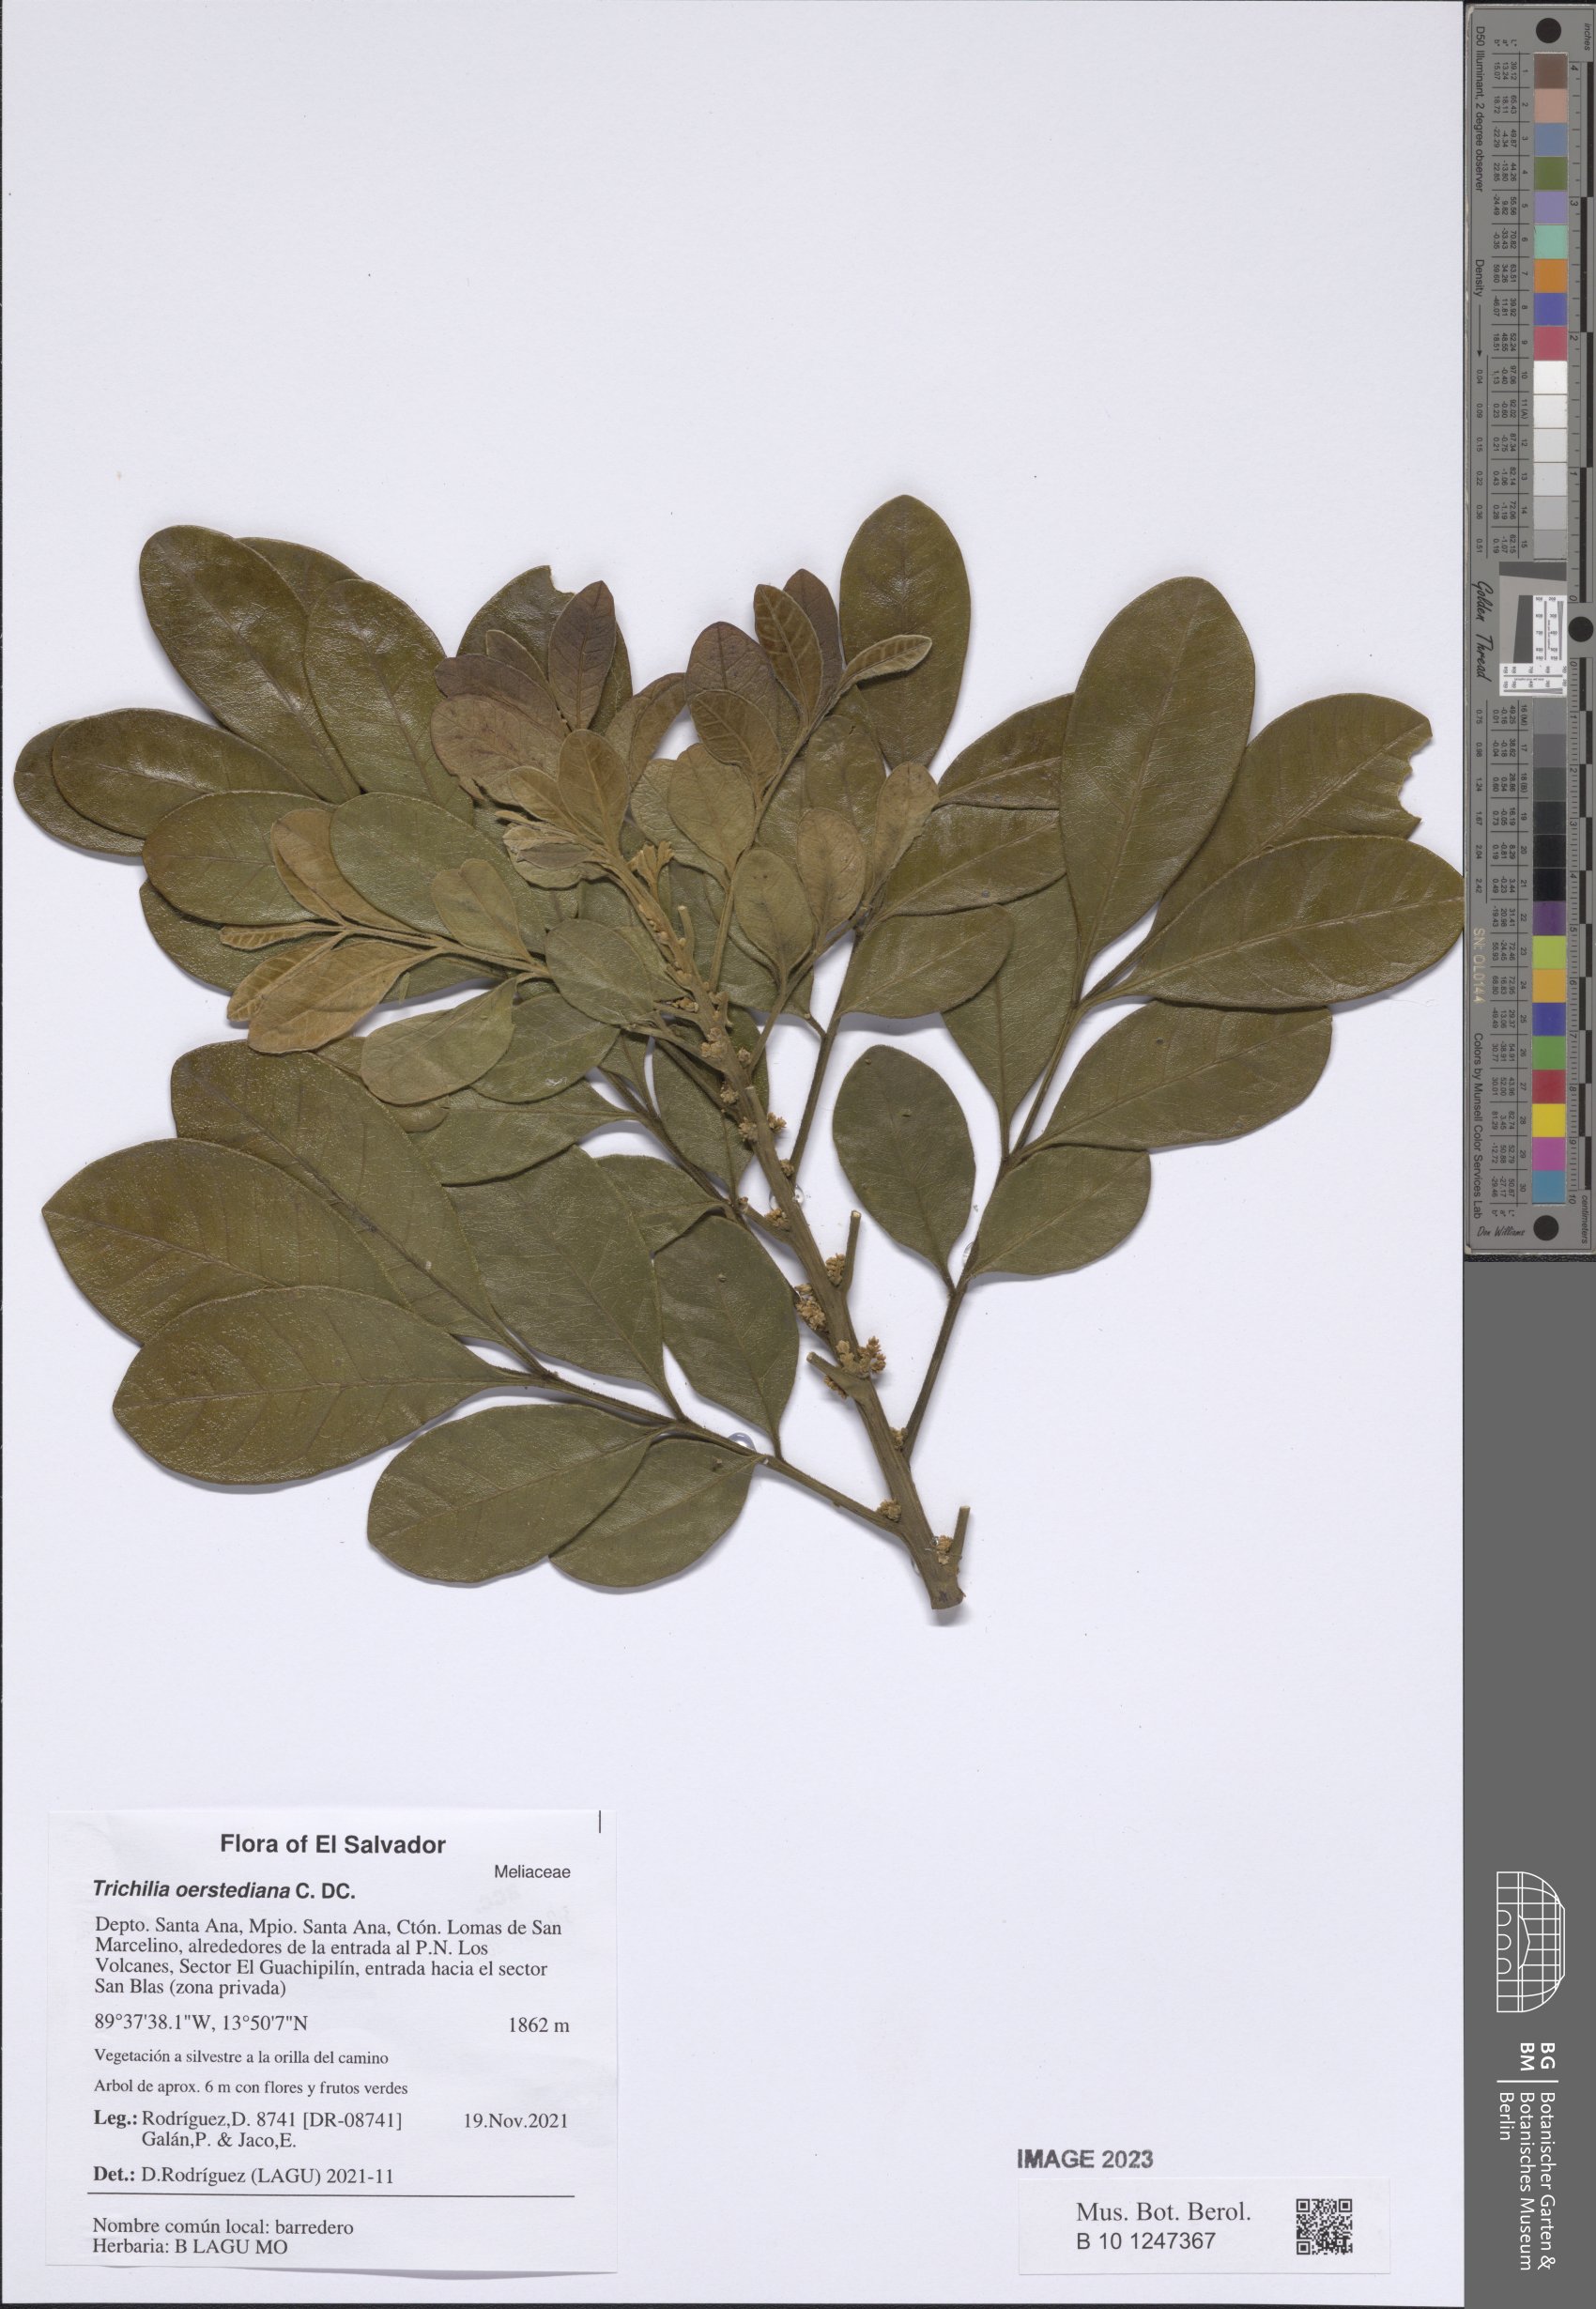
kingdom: Plantae
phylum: Tracheophyta
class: Magnoliopsida
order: Sapindales
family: Meliaceae
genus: Trichilia
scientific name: Trichilia havanensis
